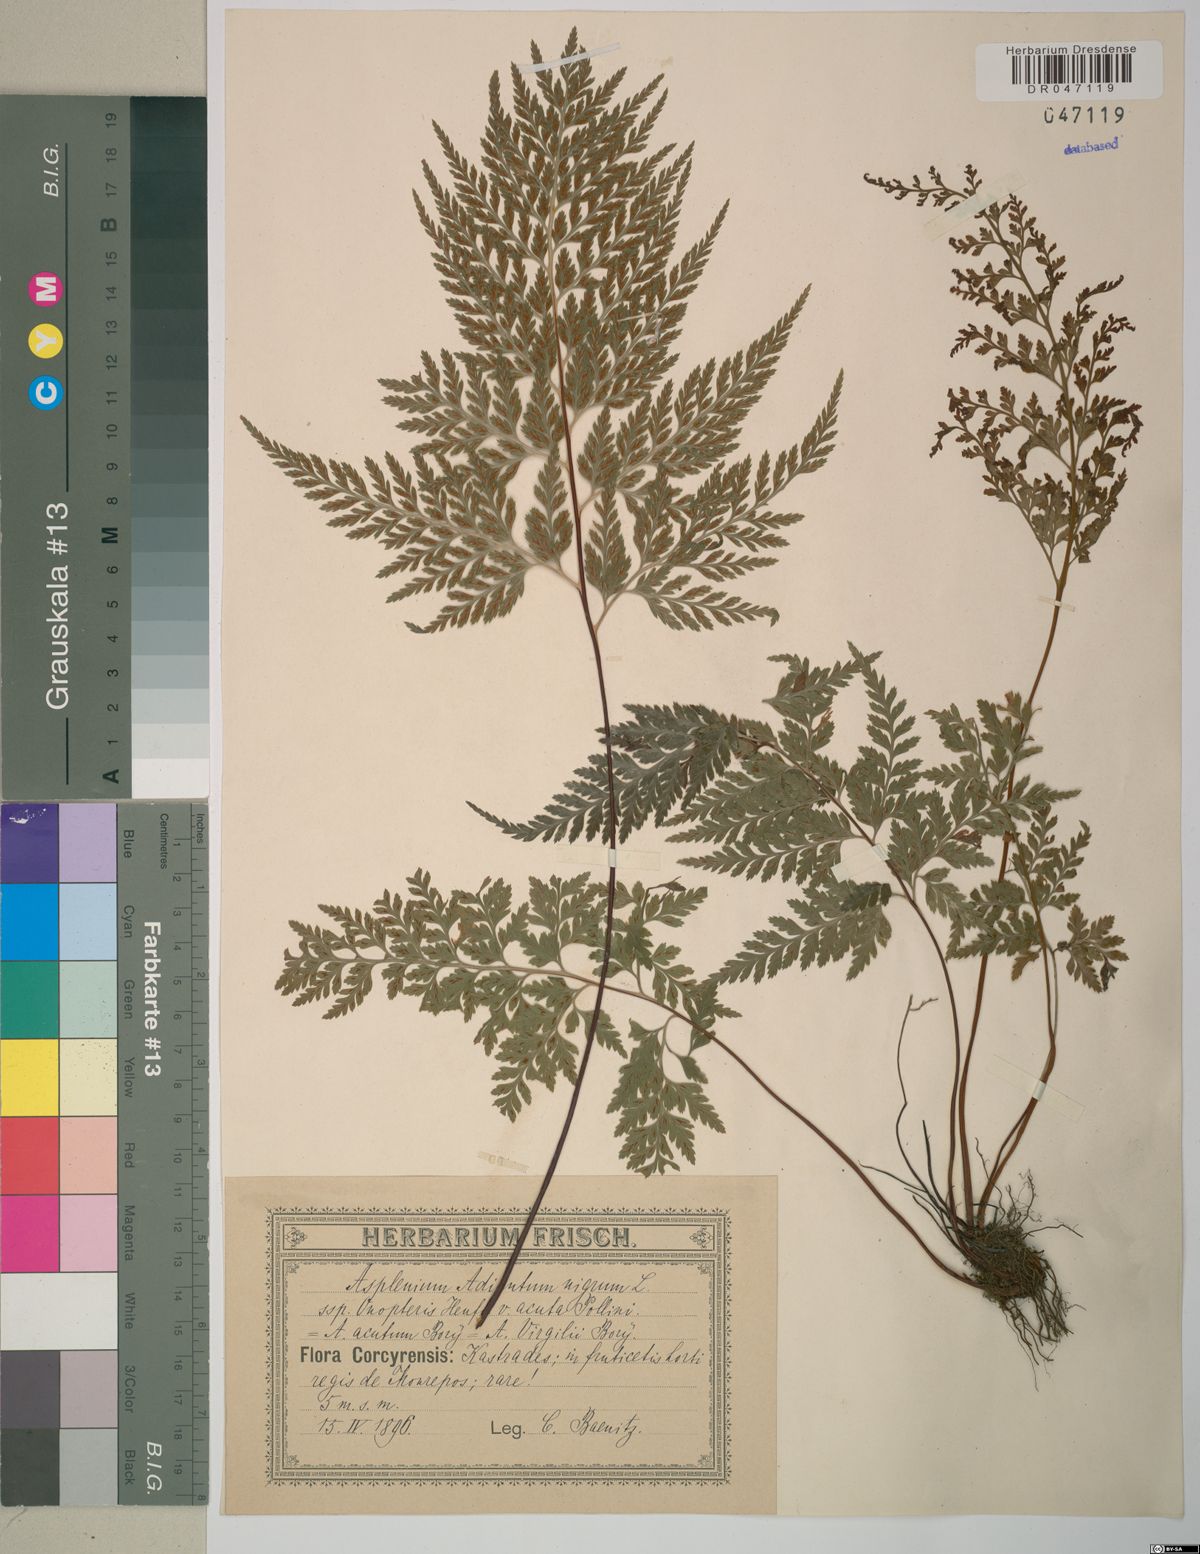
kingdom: Plantae
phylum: Tracheophyta
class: Polypodiopsida
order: Polypodiales
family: Aspleniaceae
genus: Asplenium
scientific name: Asplenium onopteris
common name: Irish spleenwort
